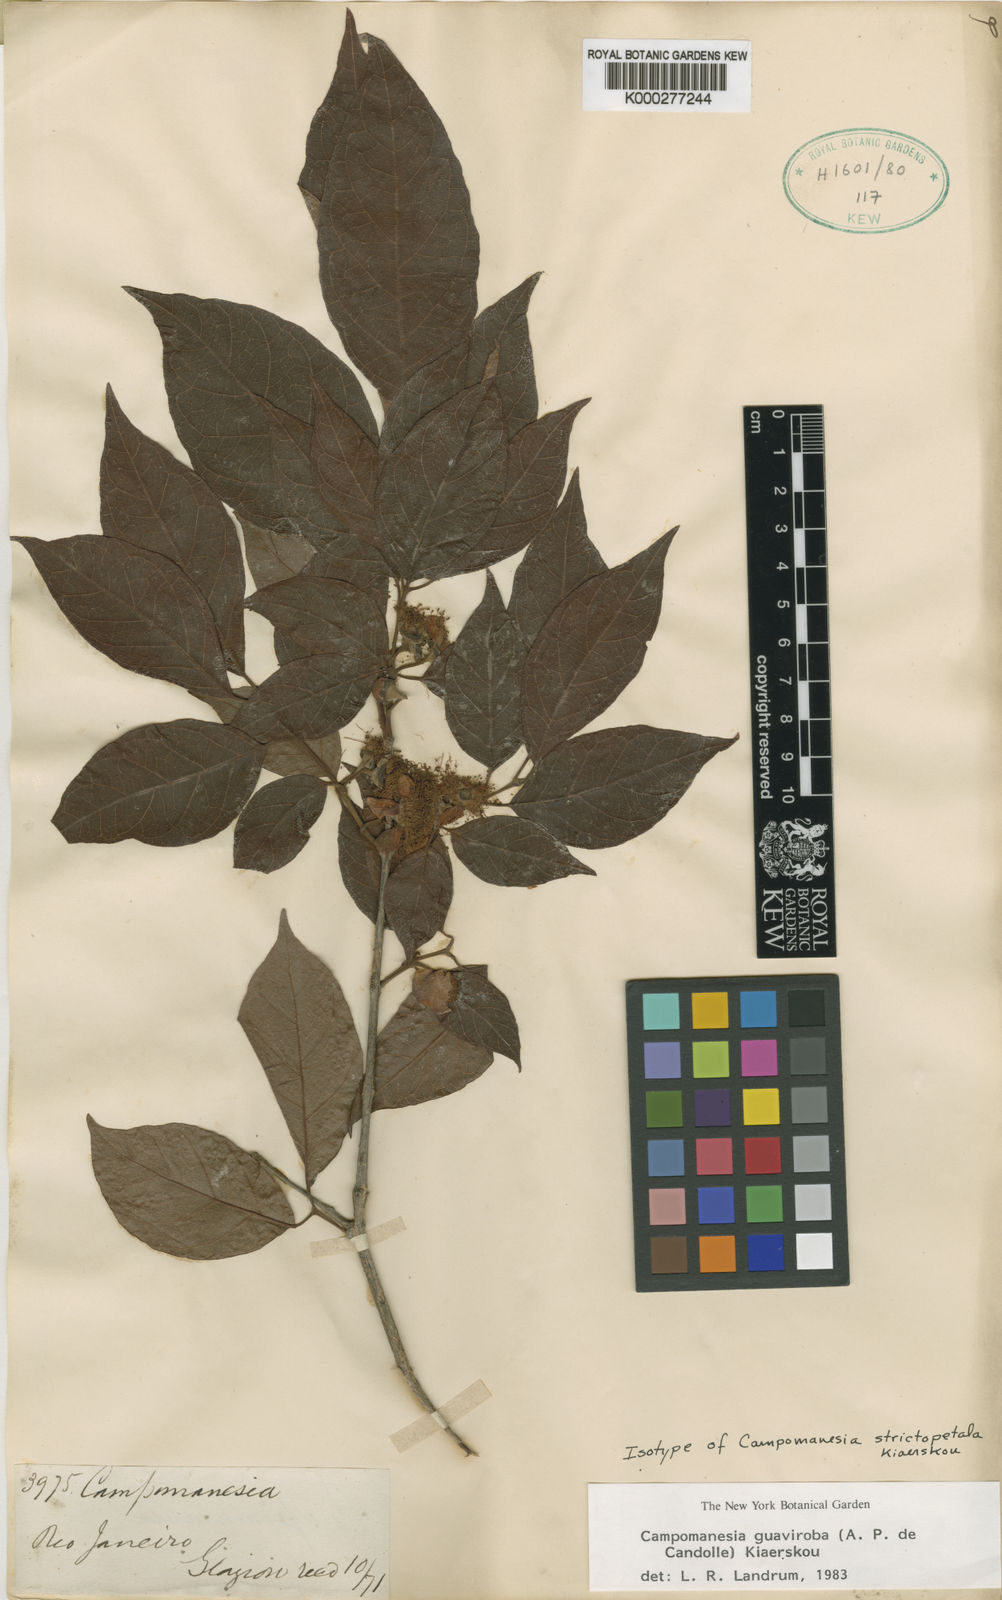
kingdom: Plantae
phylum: Tracheophyta
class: Magnoliopsida
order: Myrtales
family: Myrtaceae
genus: Campomanesia
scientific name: Campomanesia
